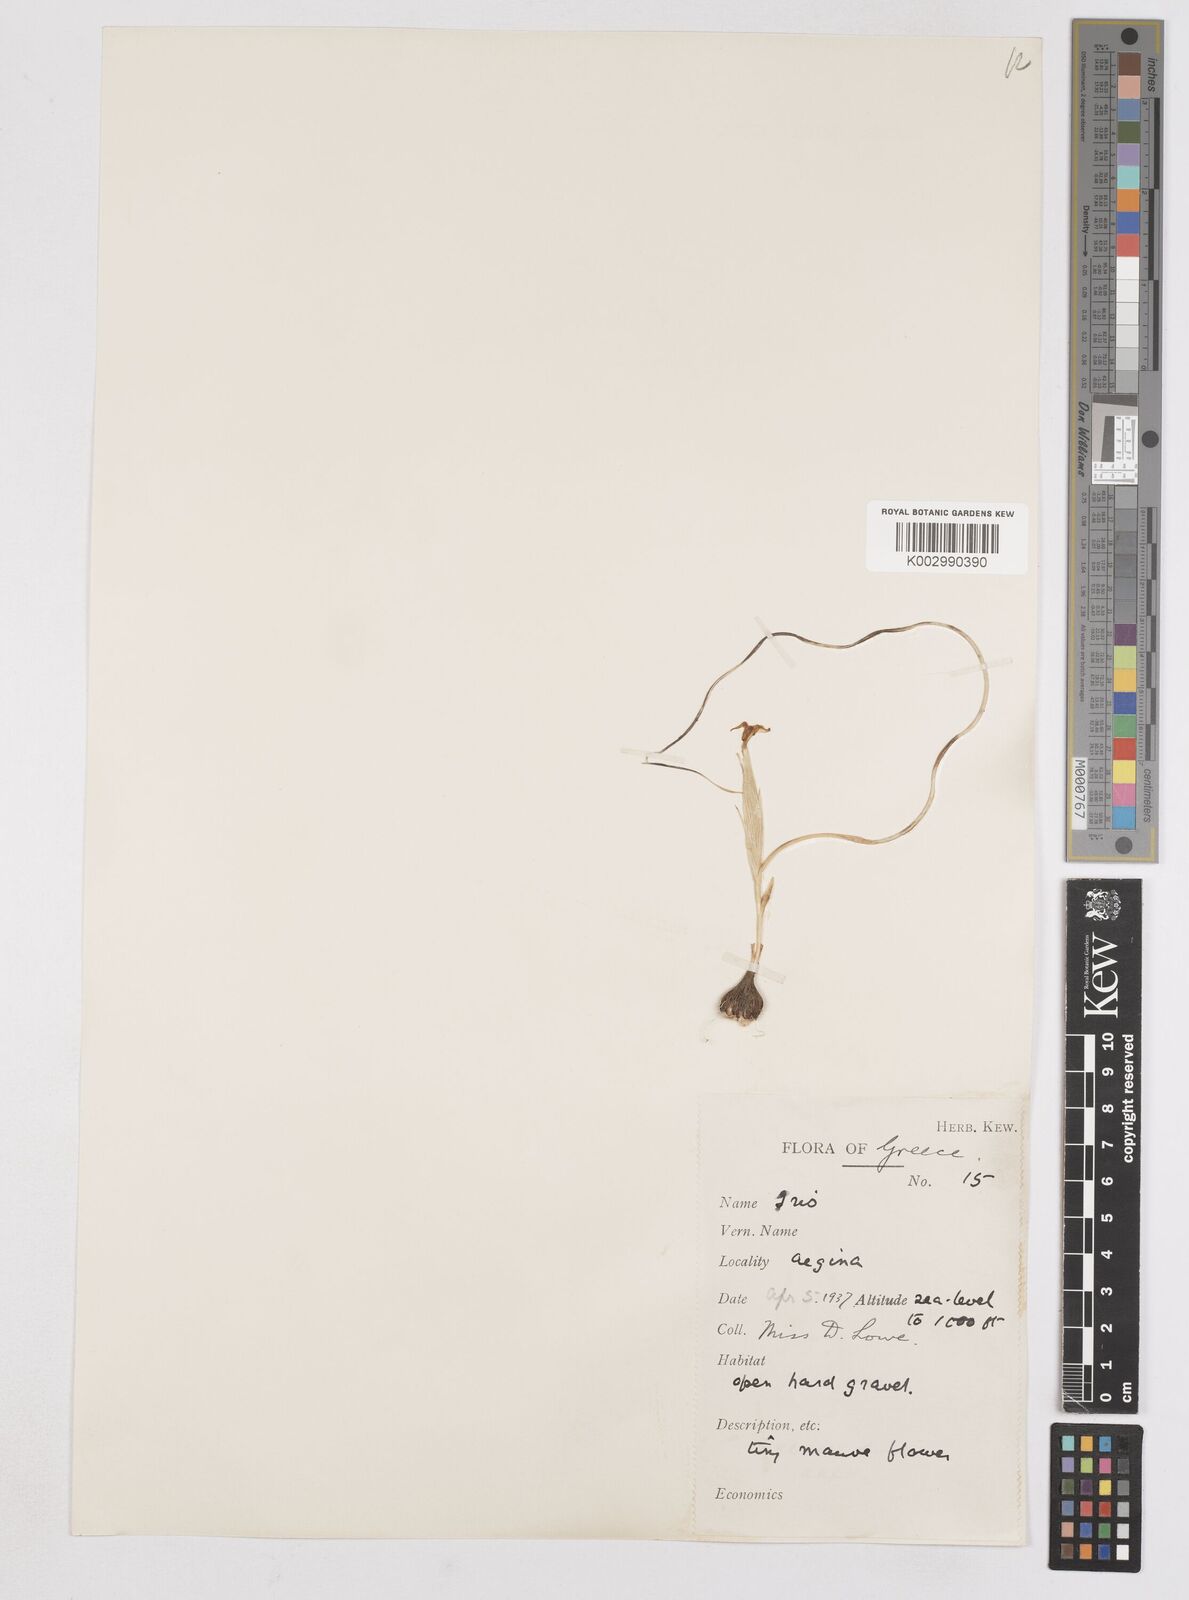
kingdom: Plantae
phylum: Tracheophyta
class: Liliopsida
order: Asparagales
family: Iridaceae
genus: Moraea
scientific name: Moraea
